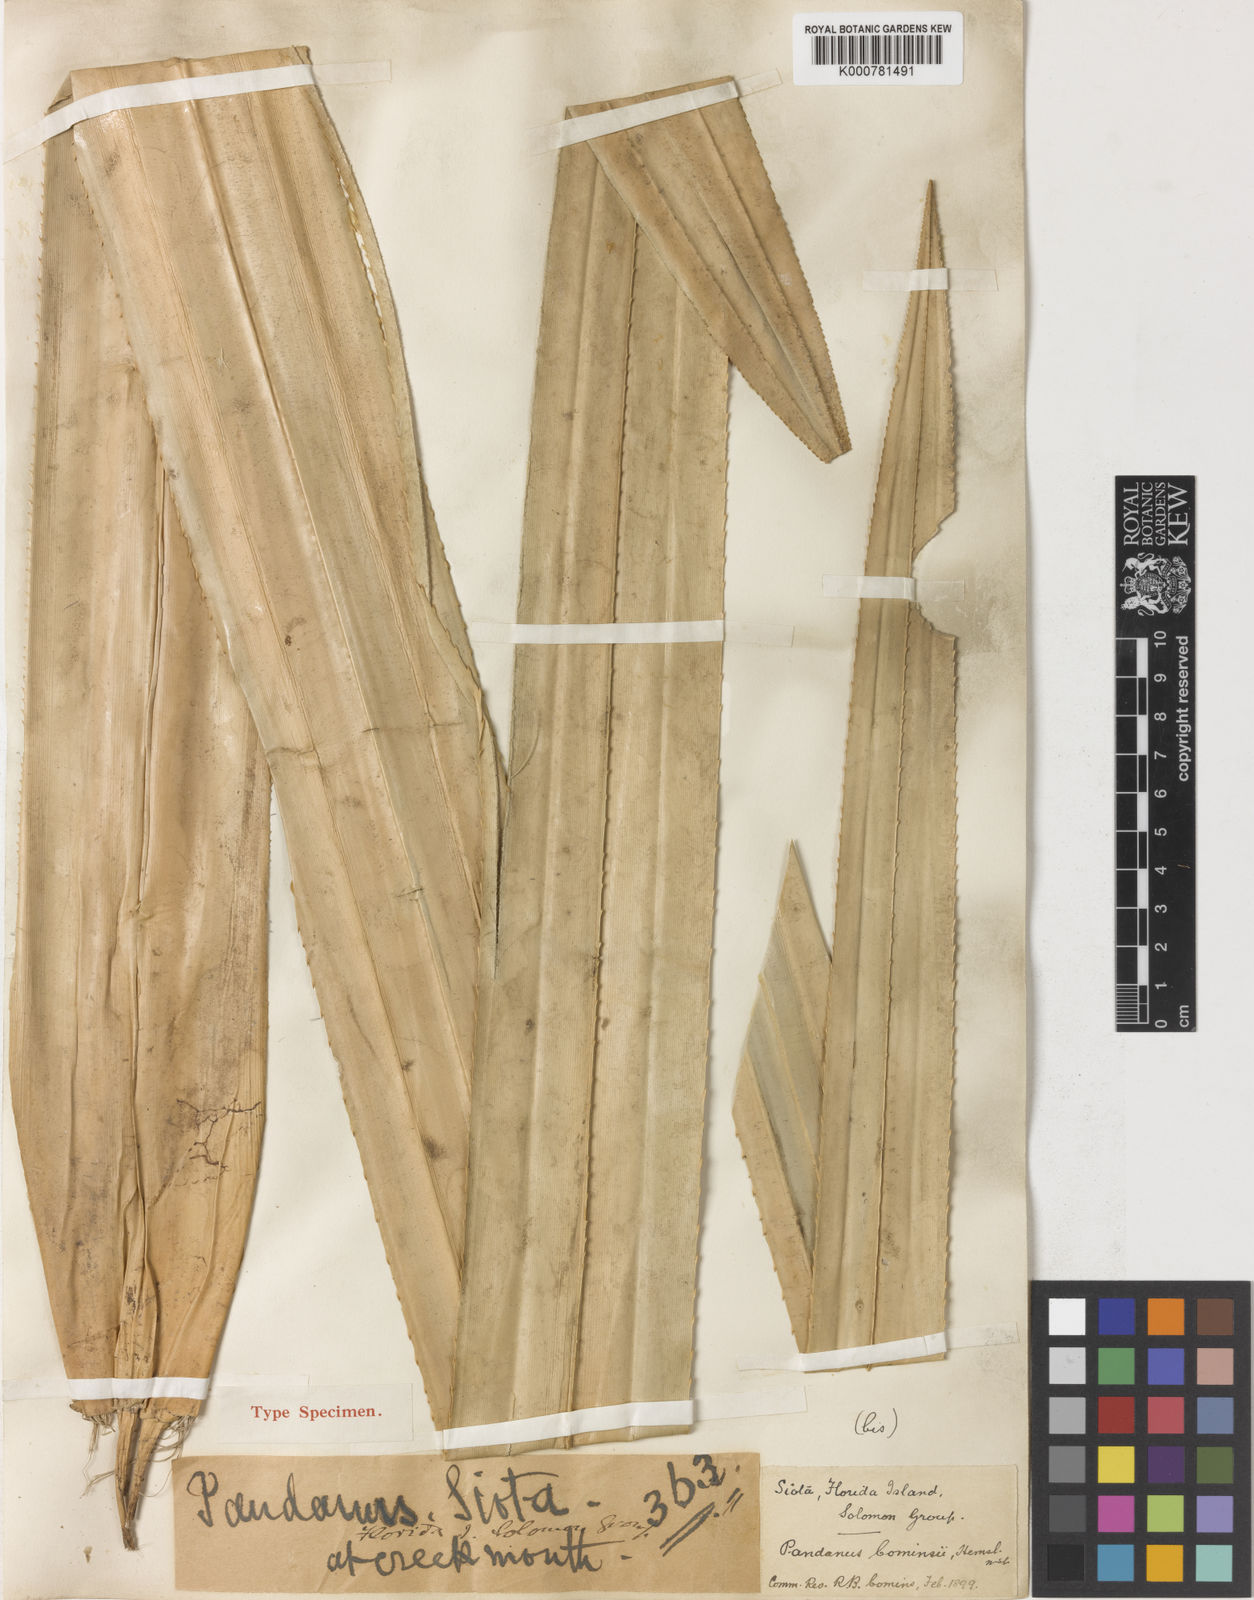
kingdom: Plantae
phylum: Tracheophyta
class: Liliopsida
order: Pandanales
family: Pandanaceae
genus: Pandanus
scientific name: Pandanus conoideus
